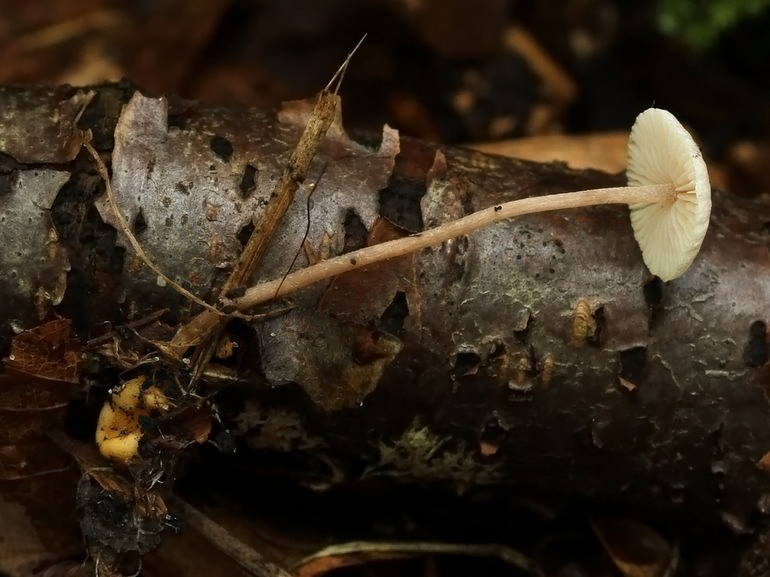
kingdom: Fungi
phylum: Basidiomycota
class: Agaricomycetes
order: Agaricales
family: Tricholomataceae
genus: Collybia
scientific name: Collybia cookei
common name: gulknoldet lighat
